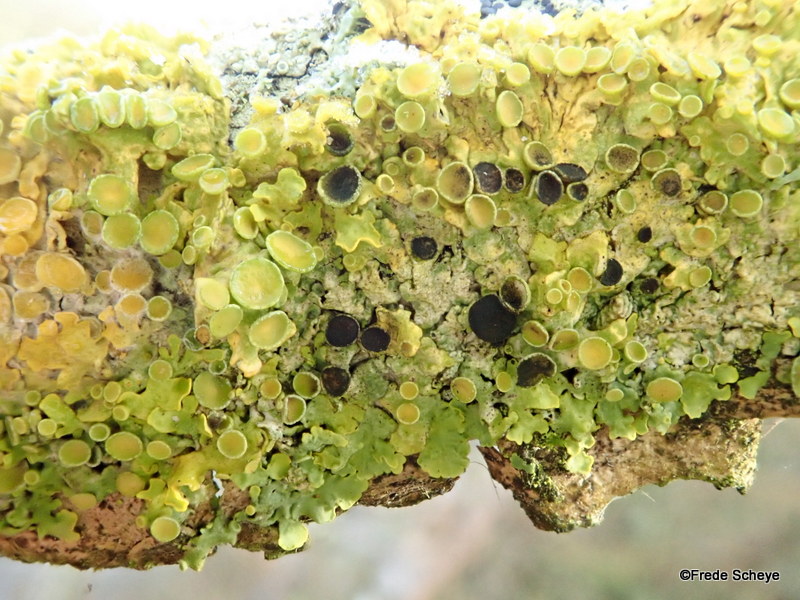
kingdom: Fungi
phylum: Ascomycota
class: Dothideomycetes
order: Mycosphaerellales
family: Teratosphaeriaceae
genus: Xanthoriicola
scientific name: Xanthoriicola physciae
